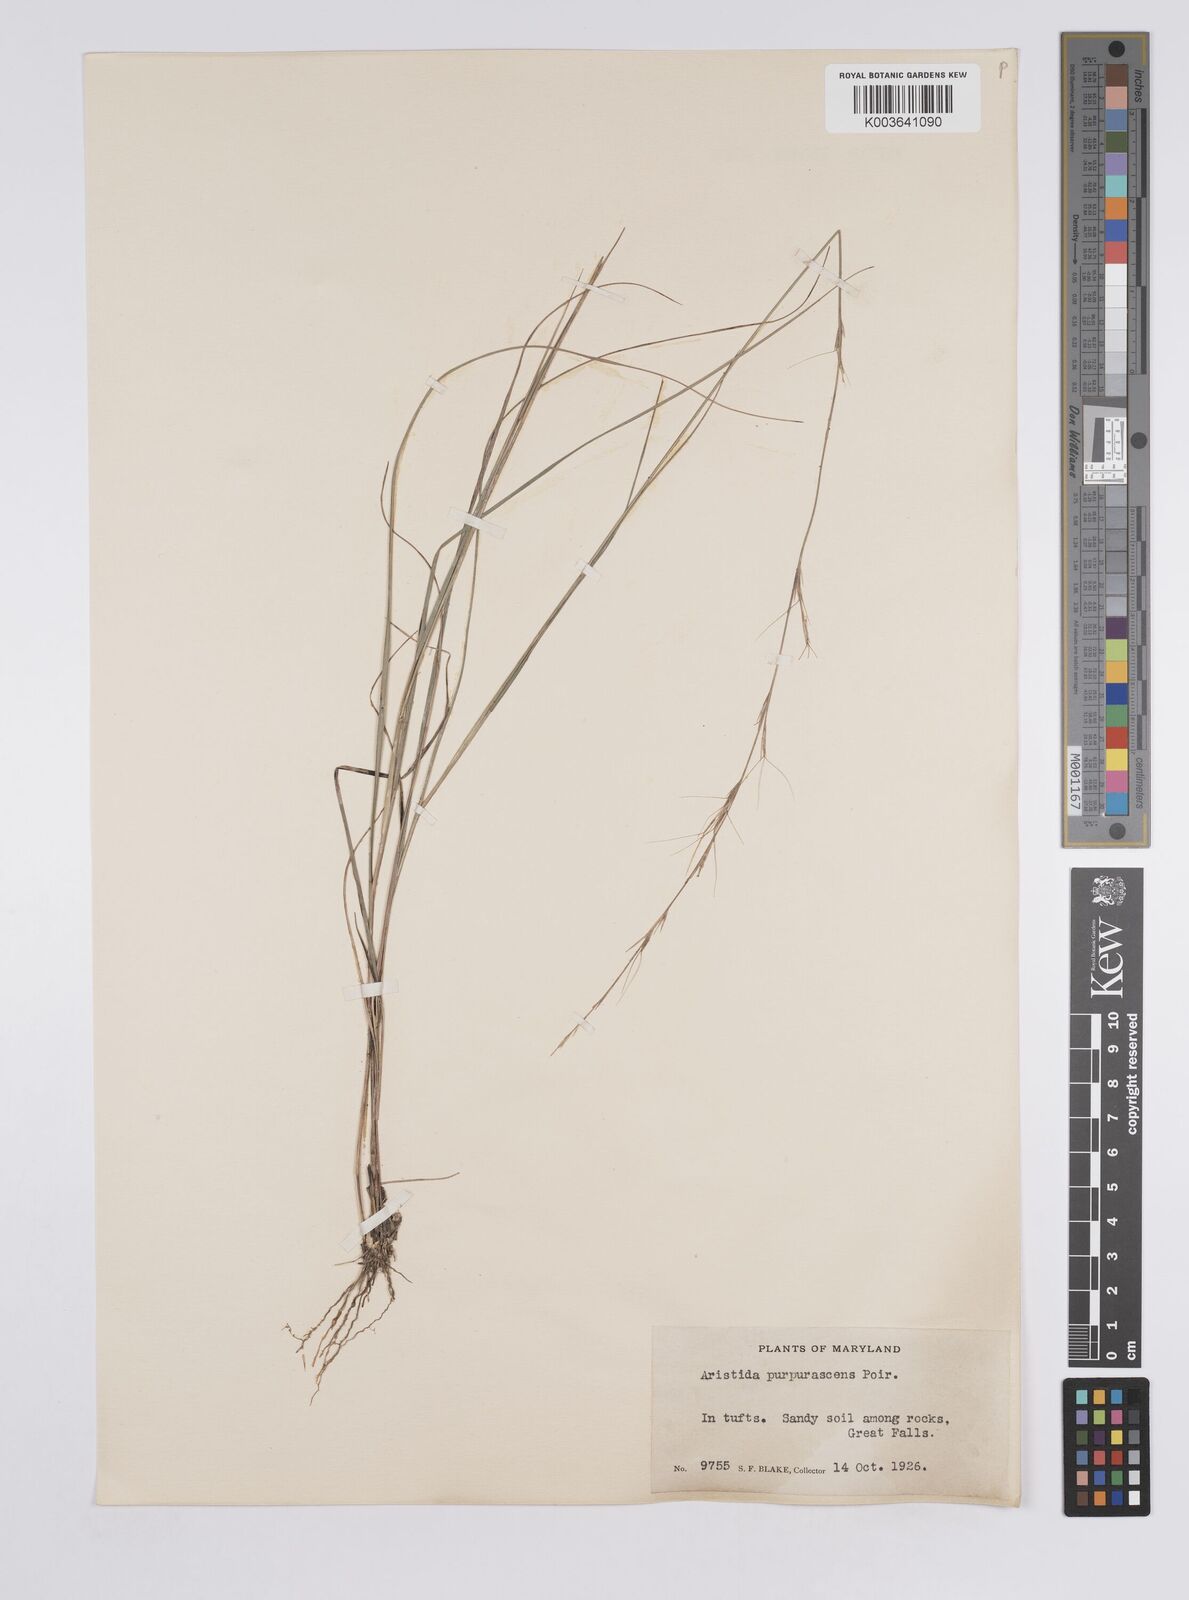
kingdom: Plantae
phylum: Tracheophyta
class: Liliopsida
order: Poales
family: Poaceae
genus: Aristida
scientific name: Aristida purpurascens
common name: Arrow-feather
